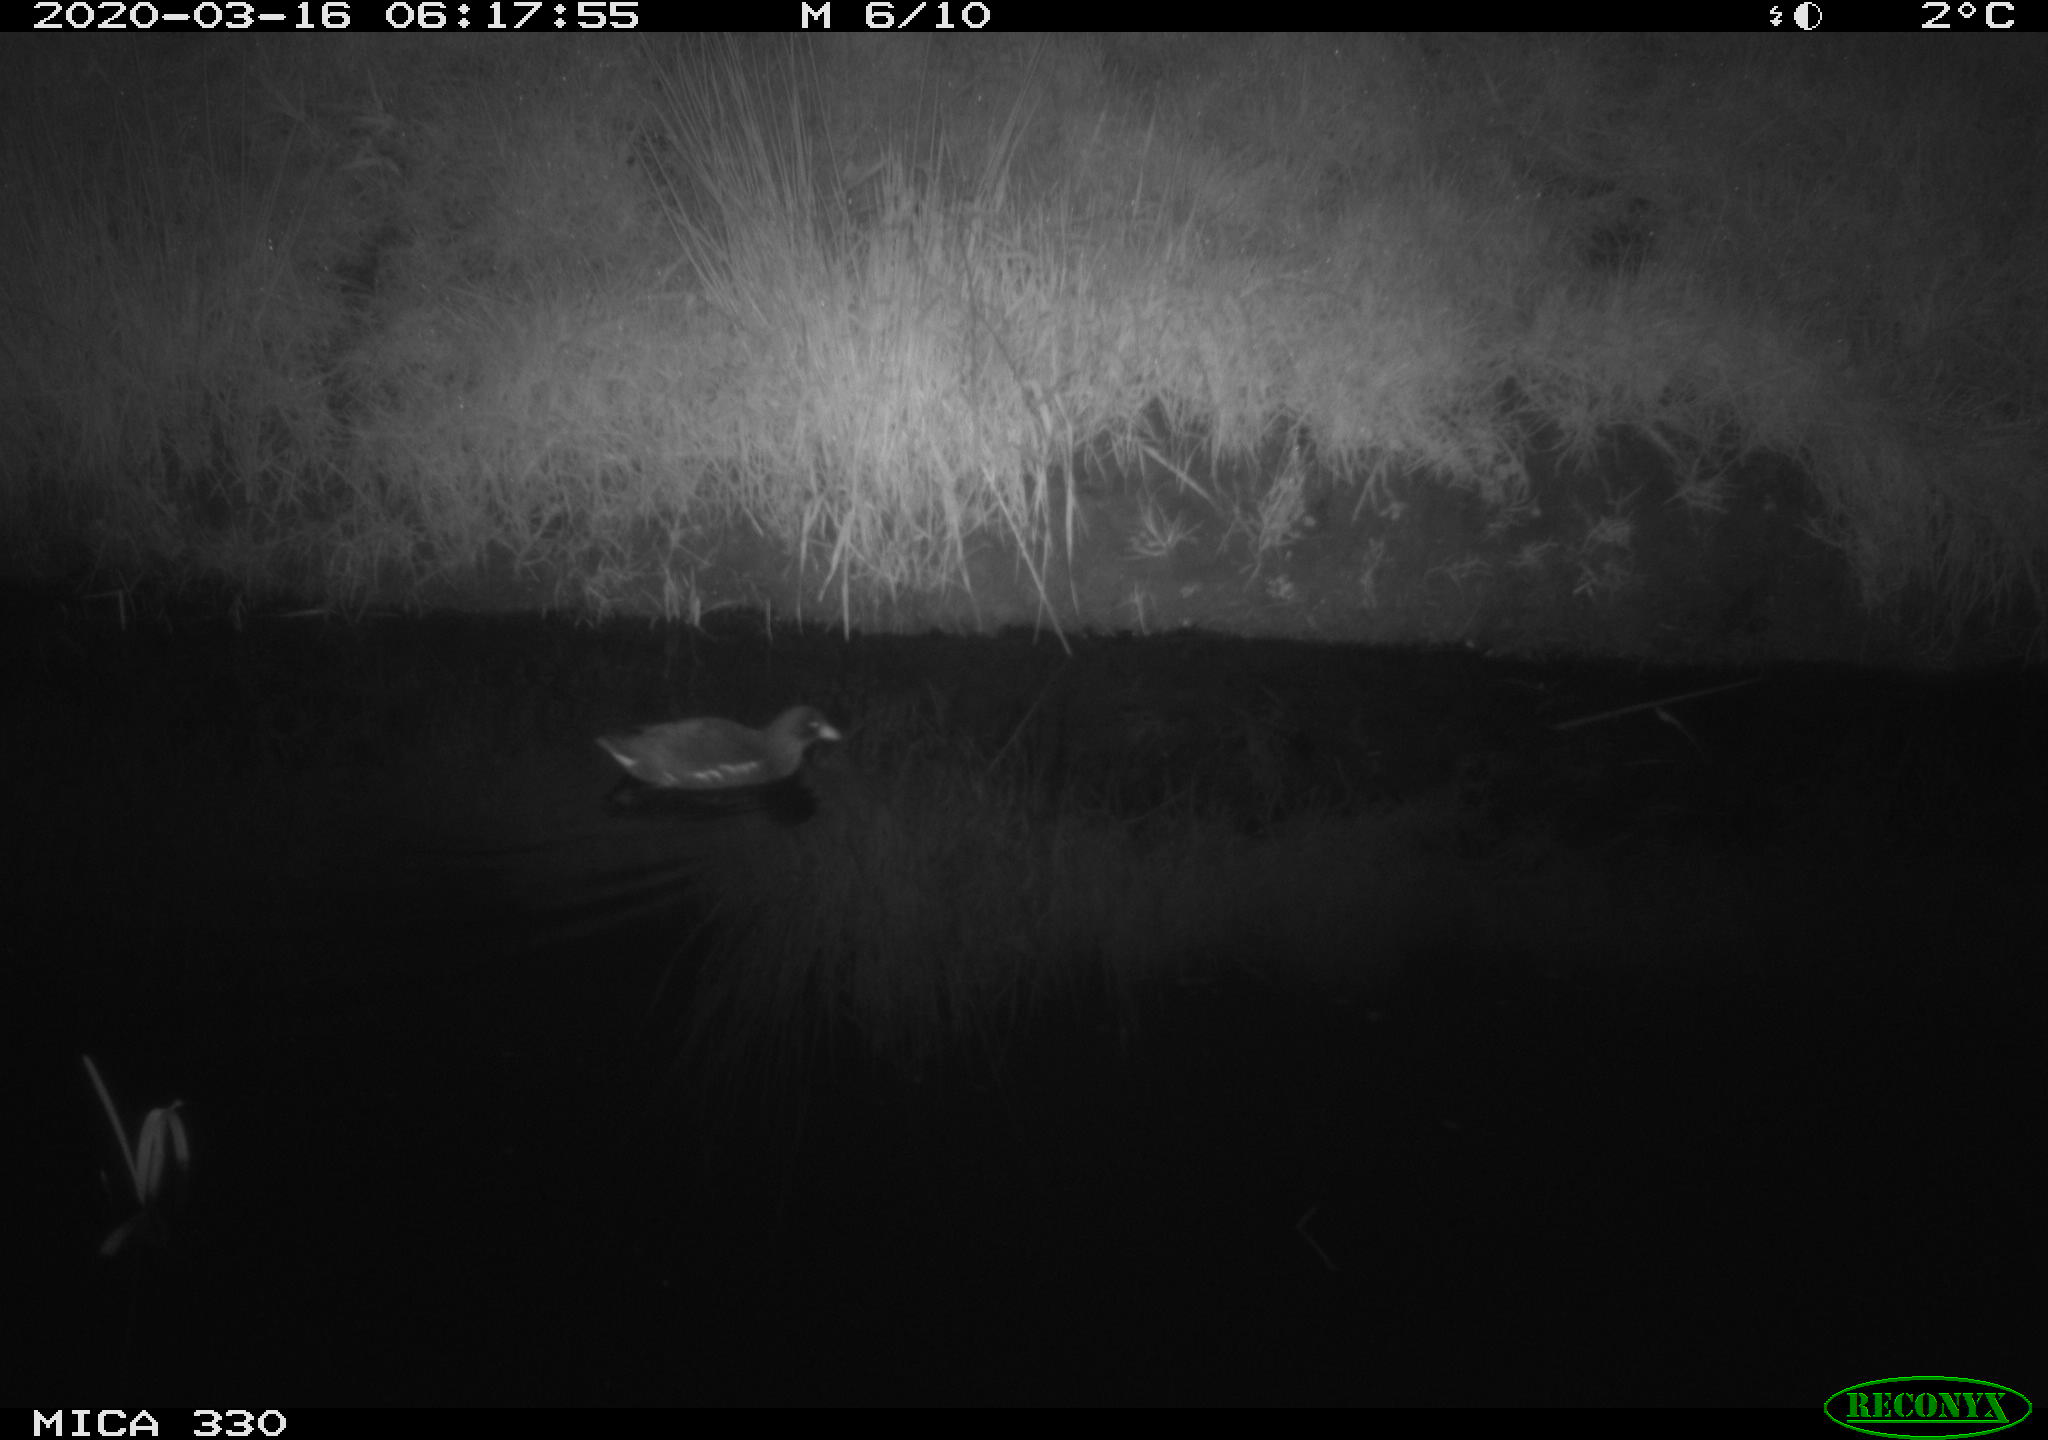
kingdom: Animalia
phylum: Chordata
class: Aves
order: Gruiformes
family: Rallidae
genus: Gallinula
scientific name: Gallinula chloropus
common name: Common moorhen
